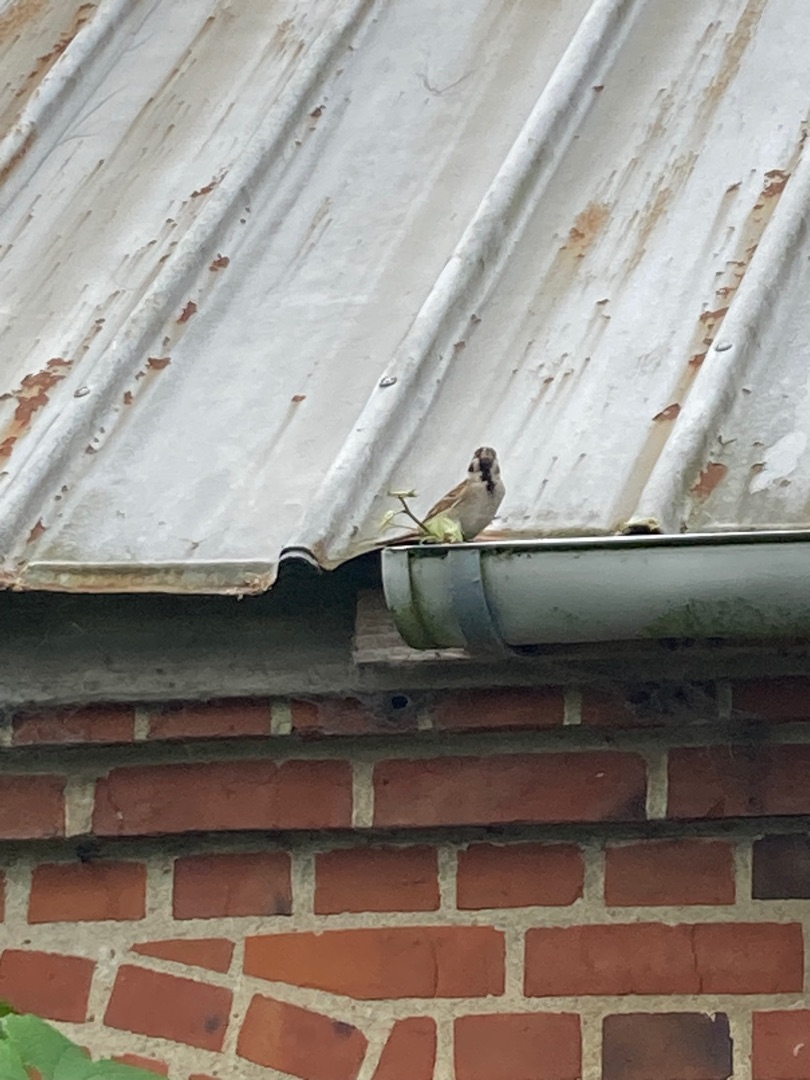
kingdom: Animalia
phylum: Chordata
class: Aves
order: Passeriformes
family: Passeridae
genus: Passer
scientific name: Passer domesticus
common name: Gråspurv
